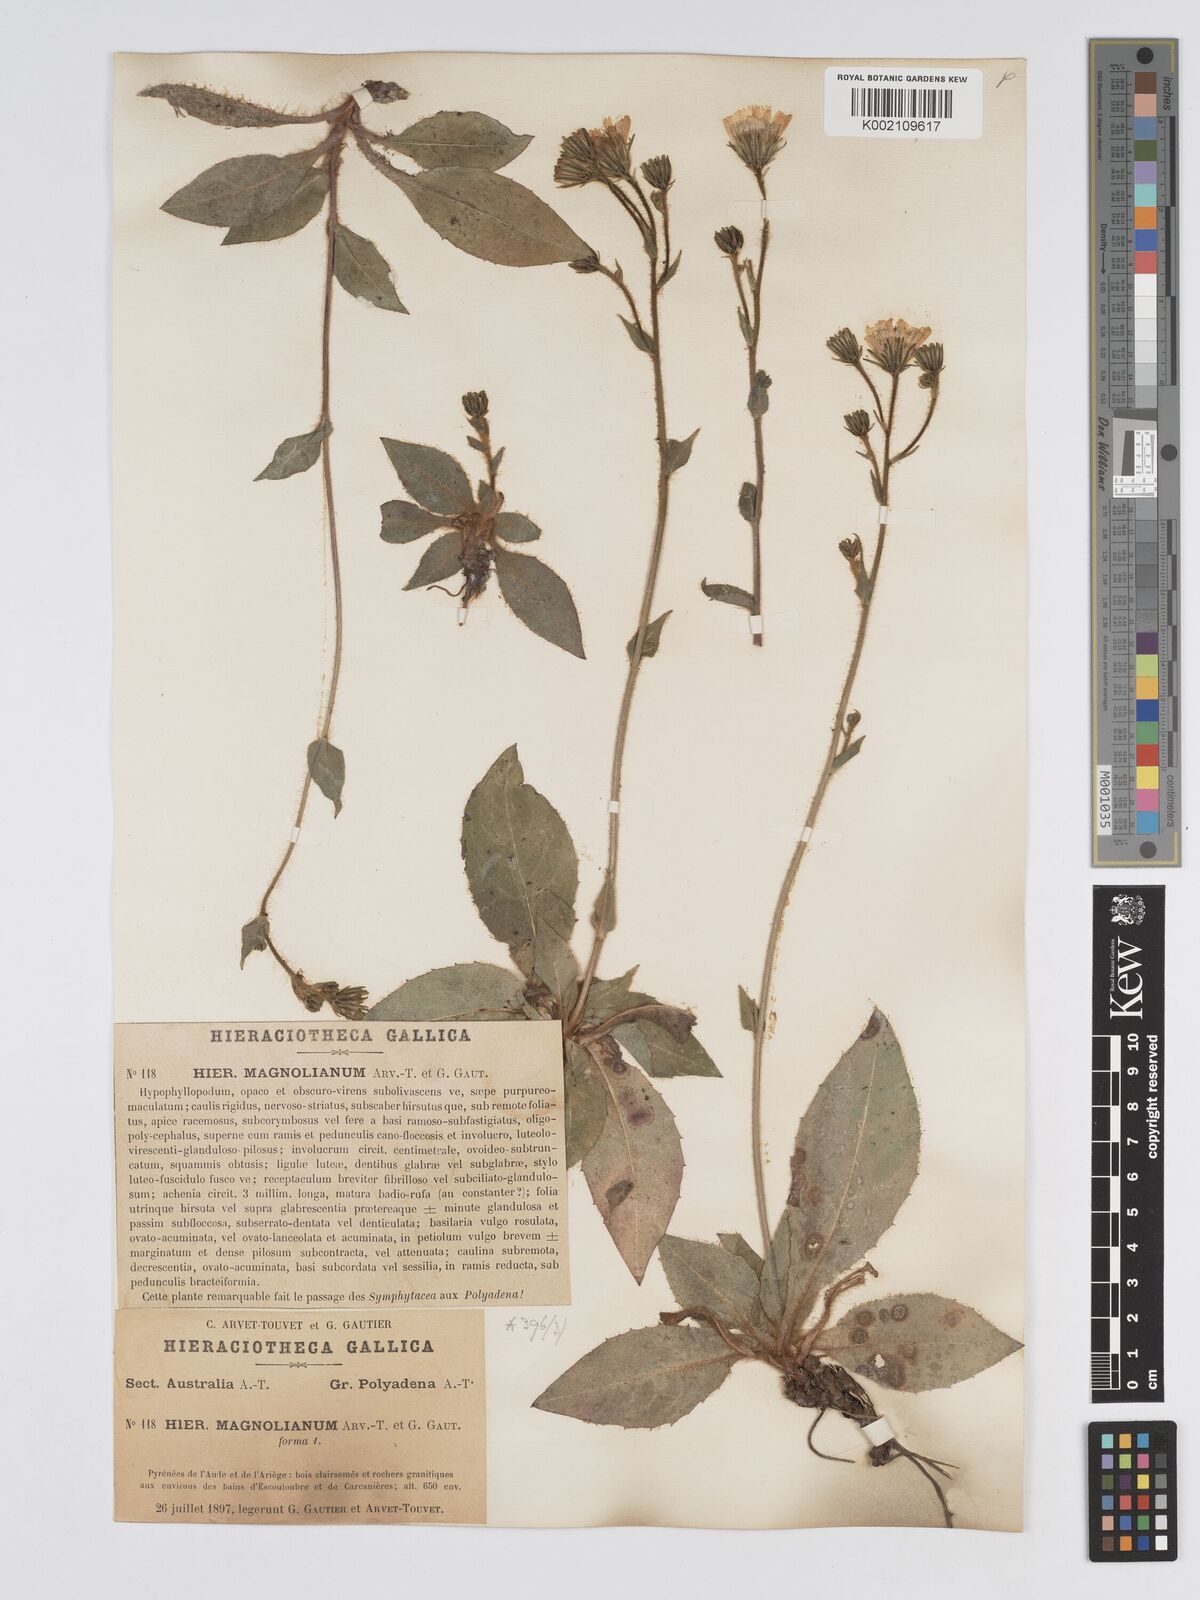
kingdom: Plantae
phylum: Tracheophyta
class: Magnoliopsida
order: Asterales
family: Asteraceae
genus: Hieracium
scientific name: Hieracium compositum
